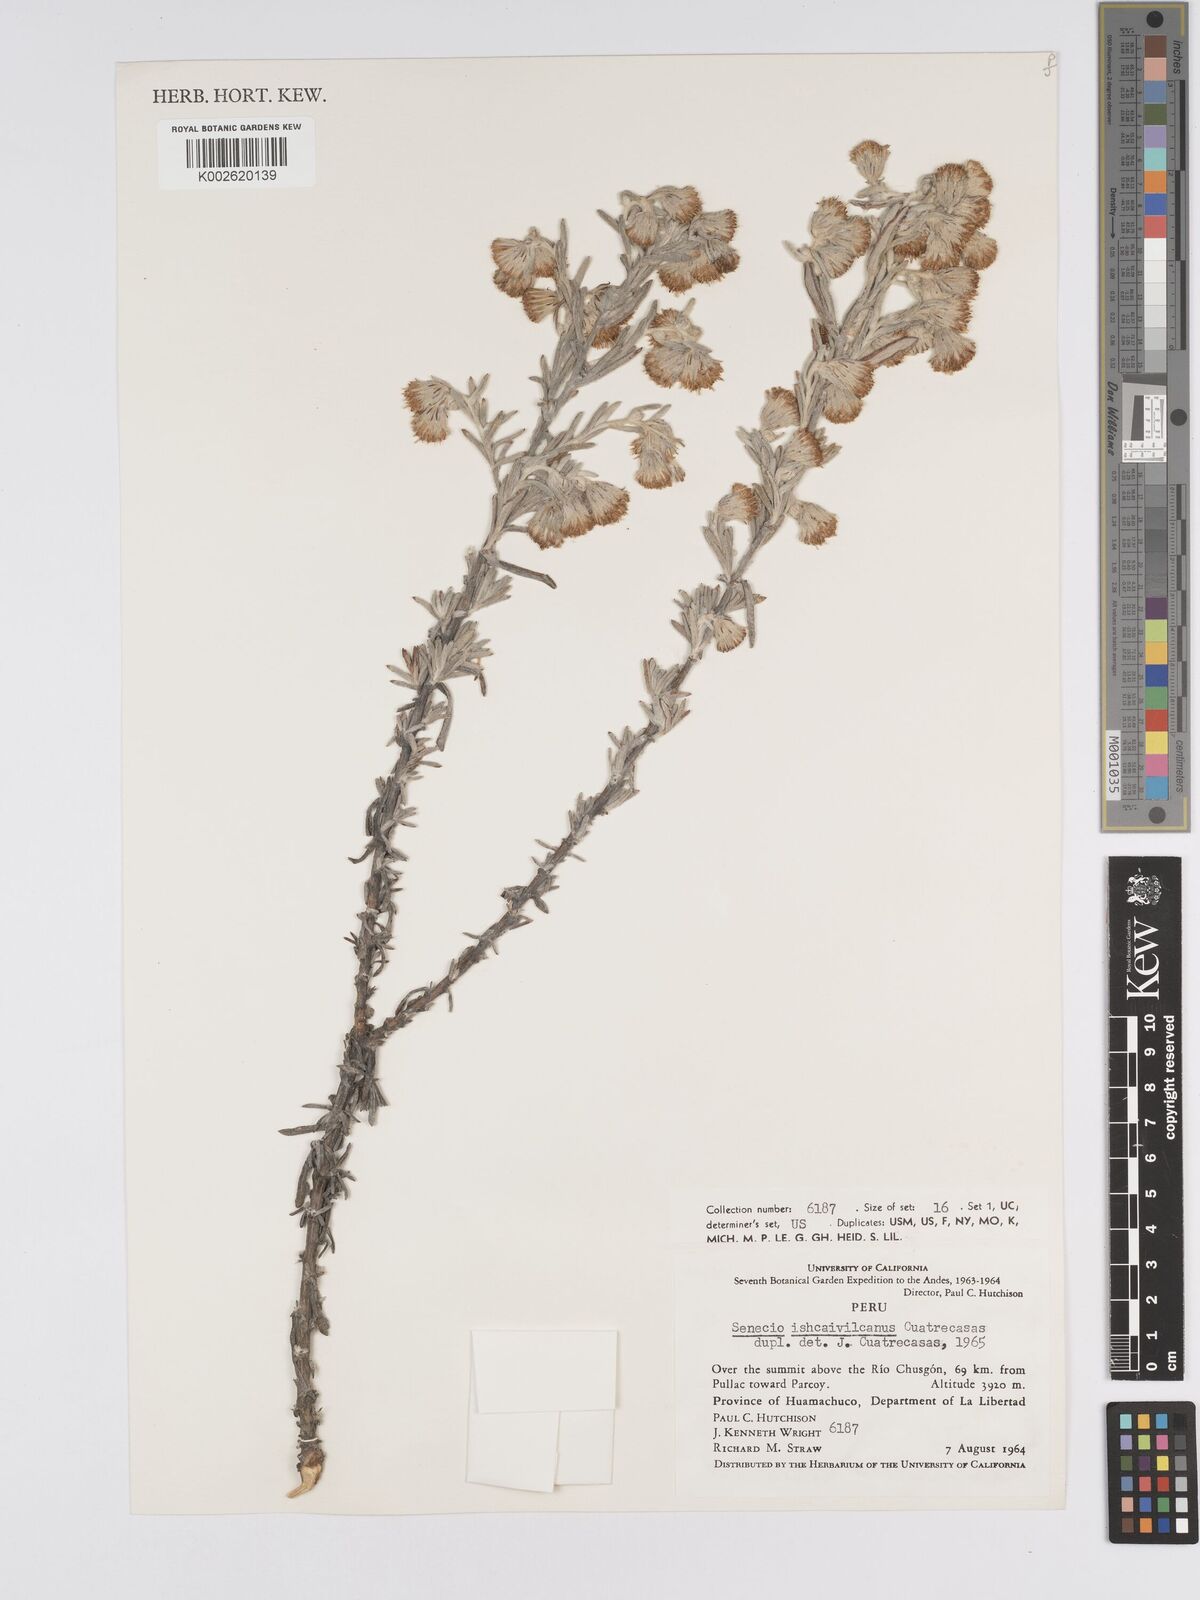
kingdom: Plantae
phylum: Tracheophyta
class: Magnoliopsida
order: Asterales
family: Asteraceae
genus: Senecio
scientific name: Senecio ishcaivilcanus
